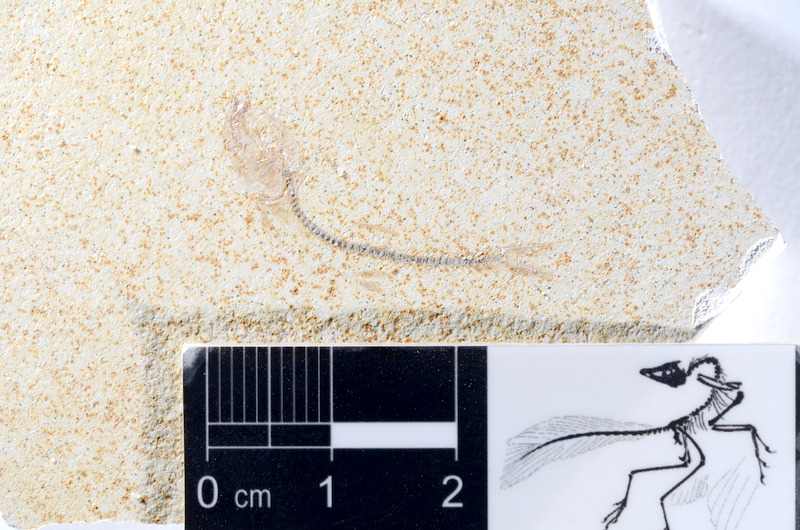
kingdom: Animalia
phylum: Chordata
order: Salmoniformes
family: Orthogonikleithridae
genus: Orthogonikleithrus
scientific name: Orthogonikleithrus hoelli
